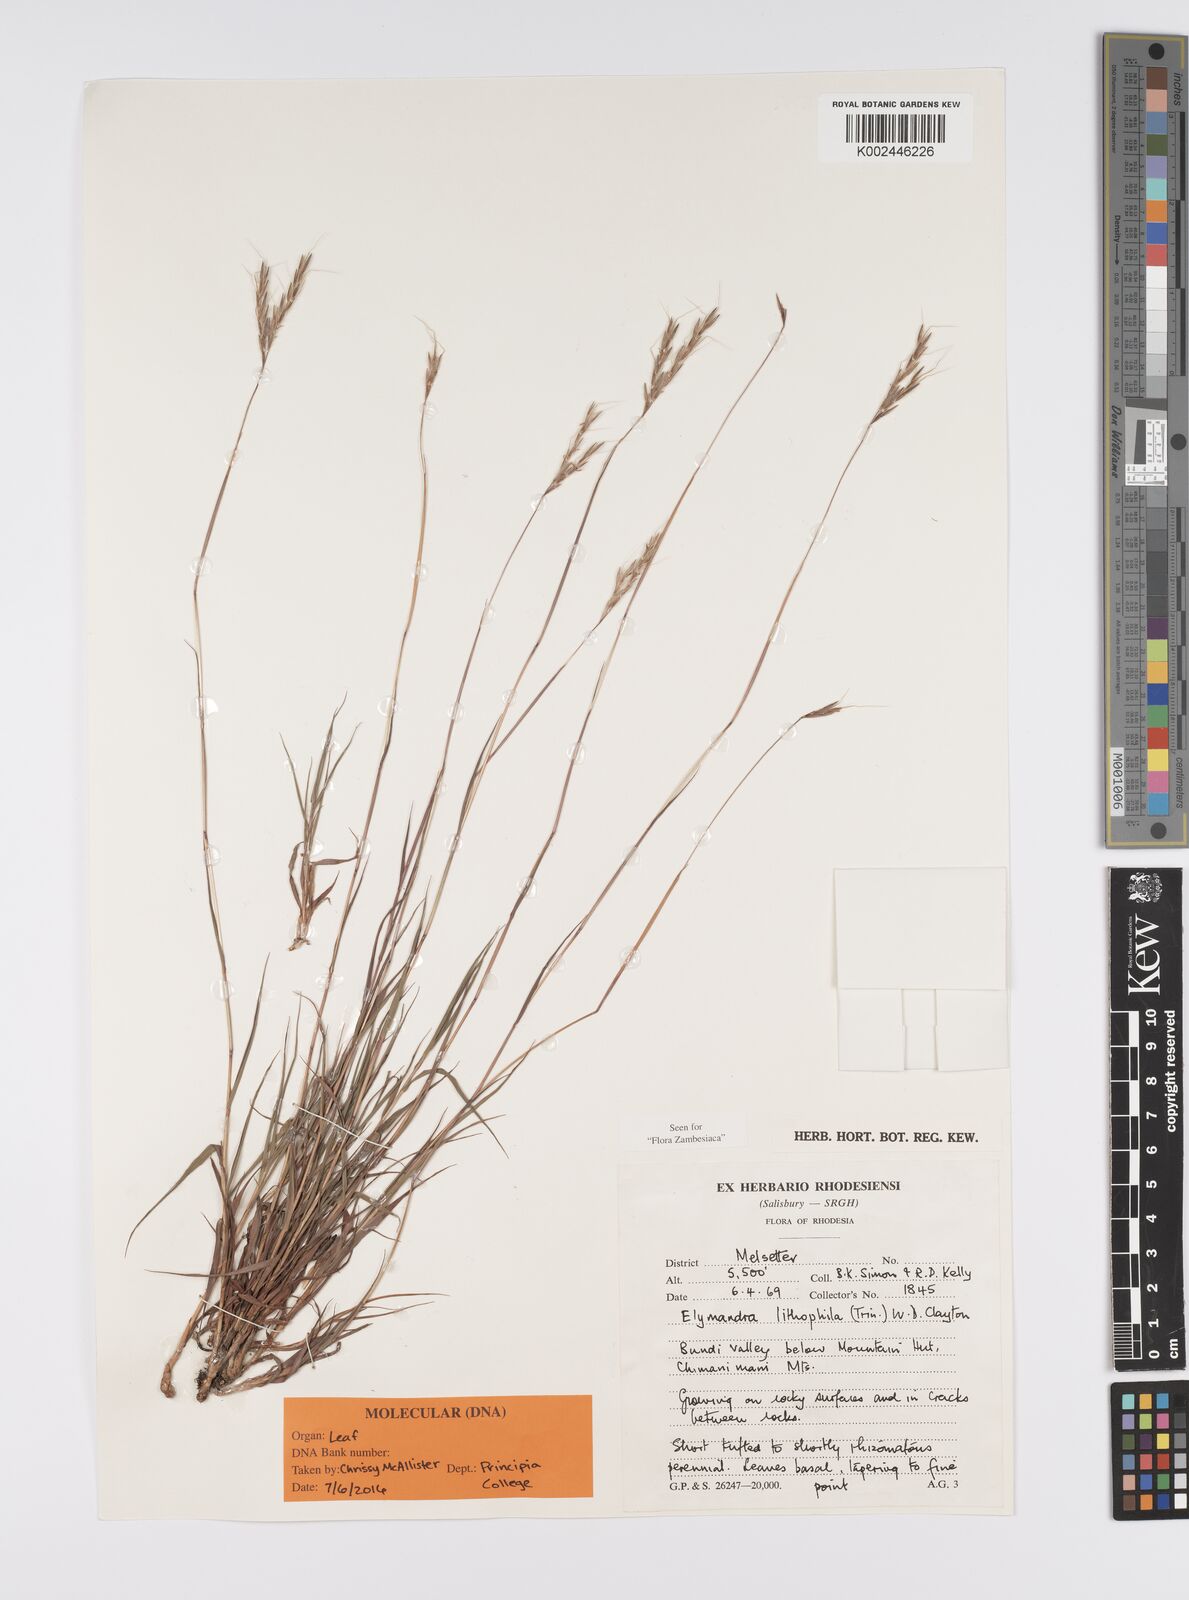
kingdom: Plantae
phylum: Tracheophyta
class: Liliopsida
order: Poales
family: Poaceae
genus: Elymandra
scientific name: Elymandra lithophila
